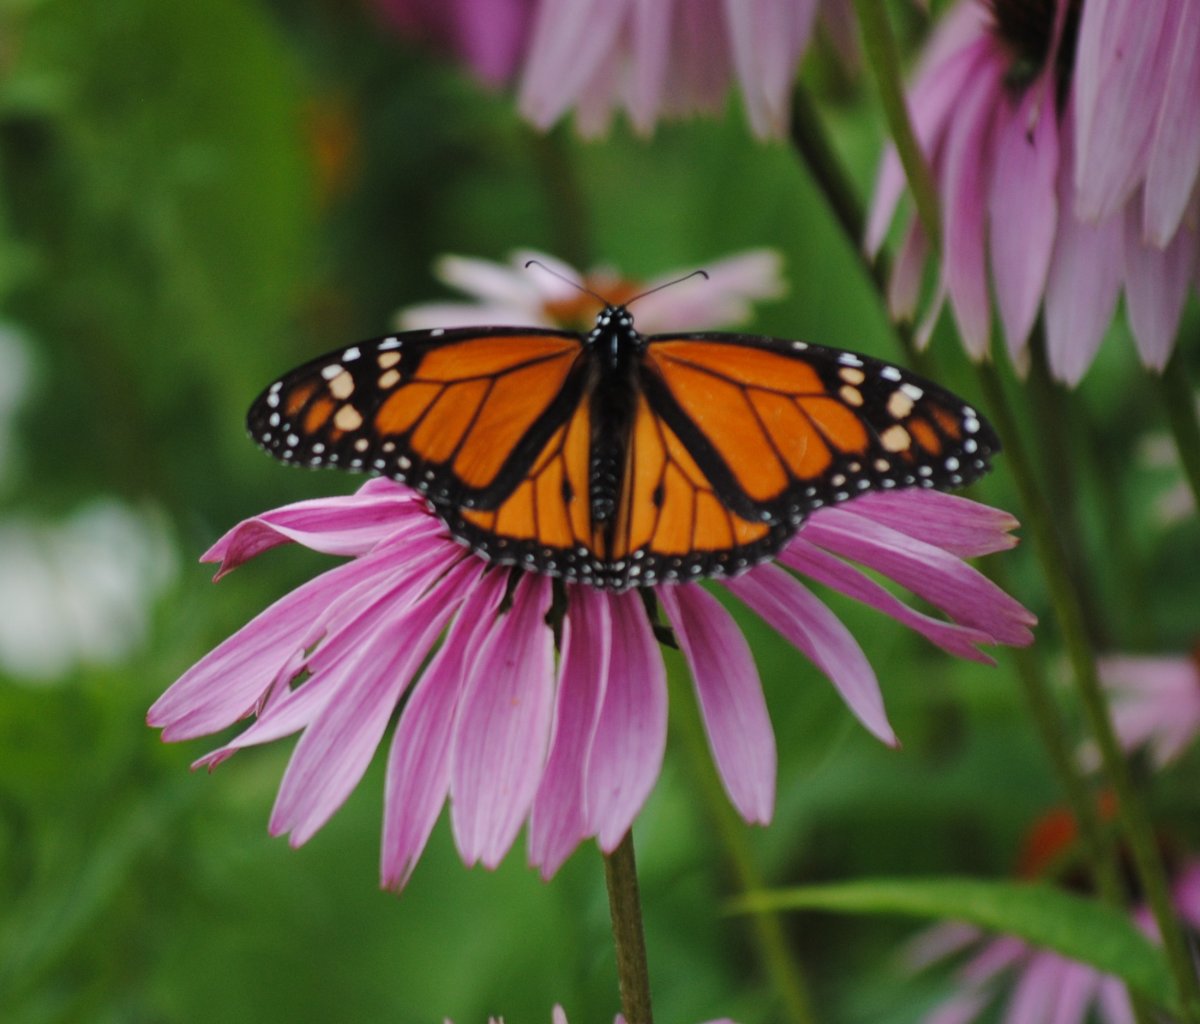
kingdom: Animalia
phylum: Arthropoda
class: Insecta
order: Lepidoptera
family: Nymphalidae
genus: Danaus
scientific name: Danaus plexippus
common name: Monarch
